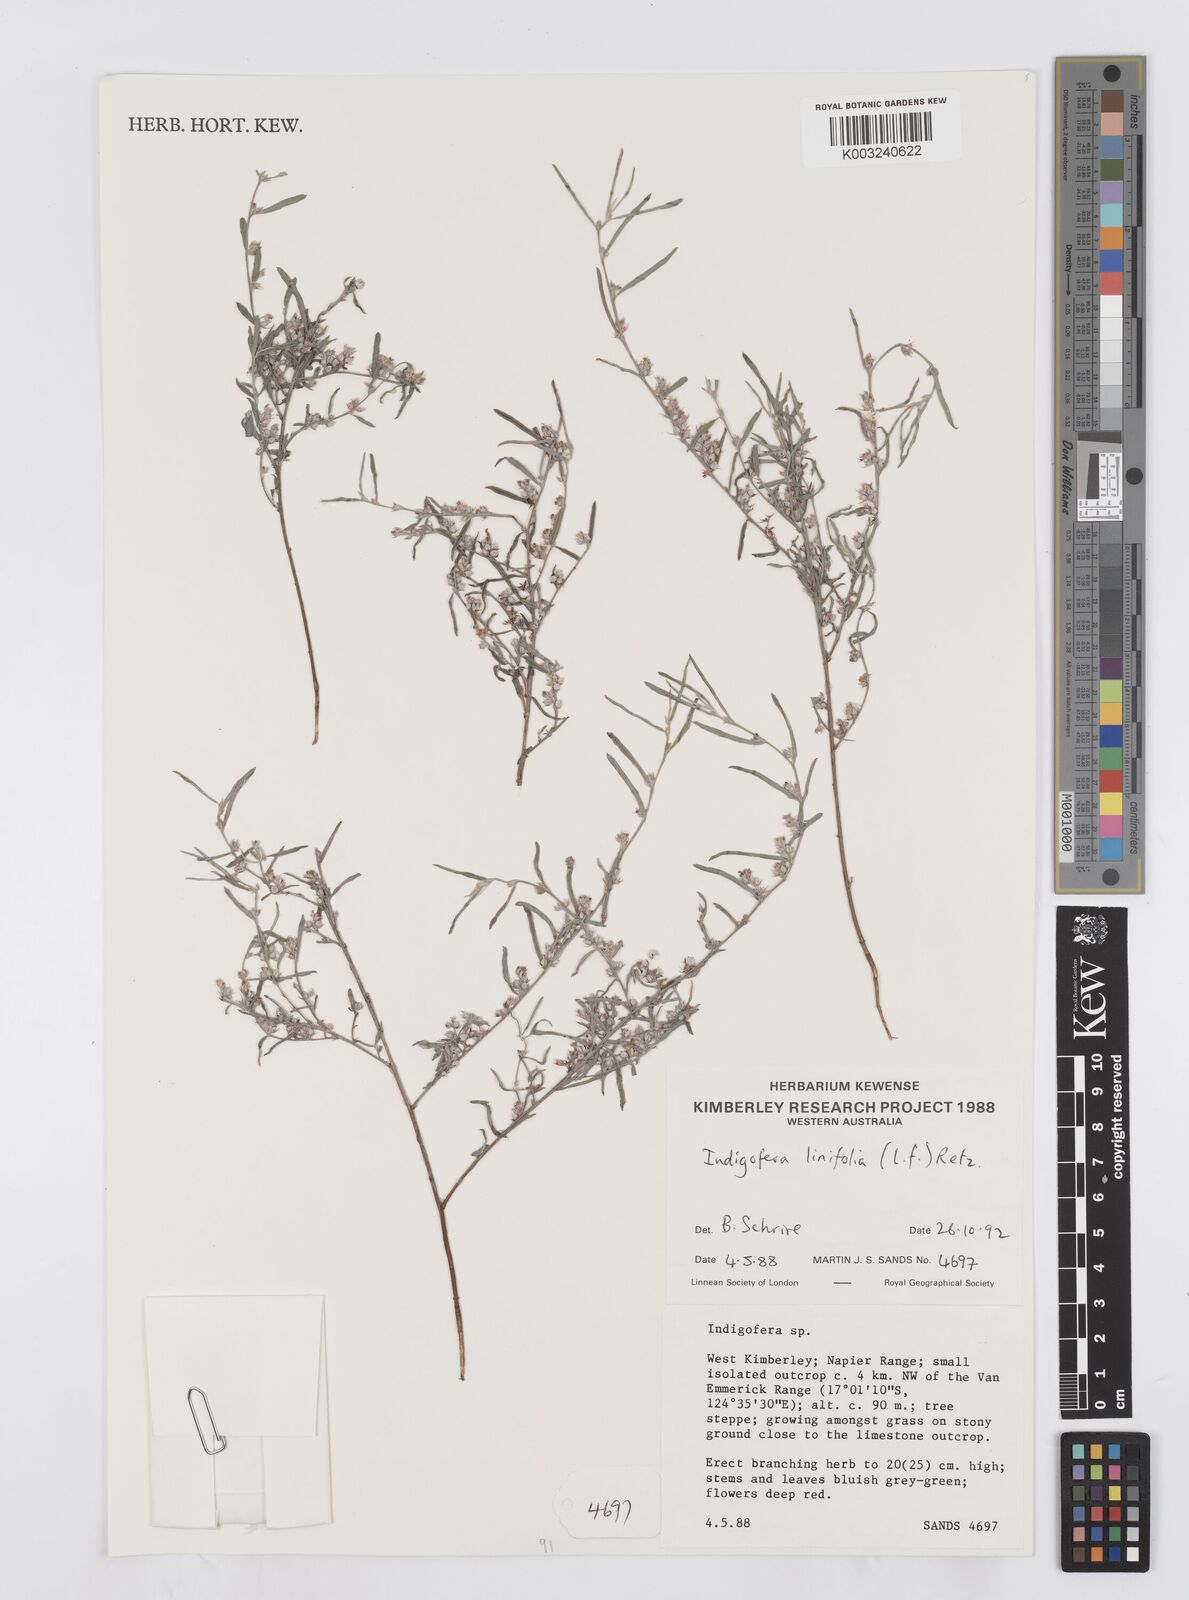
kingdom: Plantae
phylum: Tracheophyta
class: Magnoliopsida
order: Fabales
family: Fabaceae
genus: Indigofera
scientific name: Indigofera linifolia
